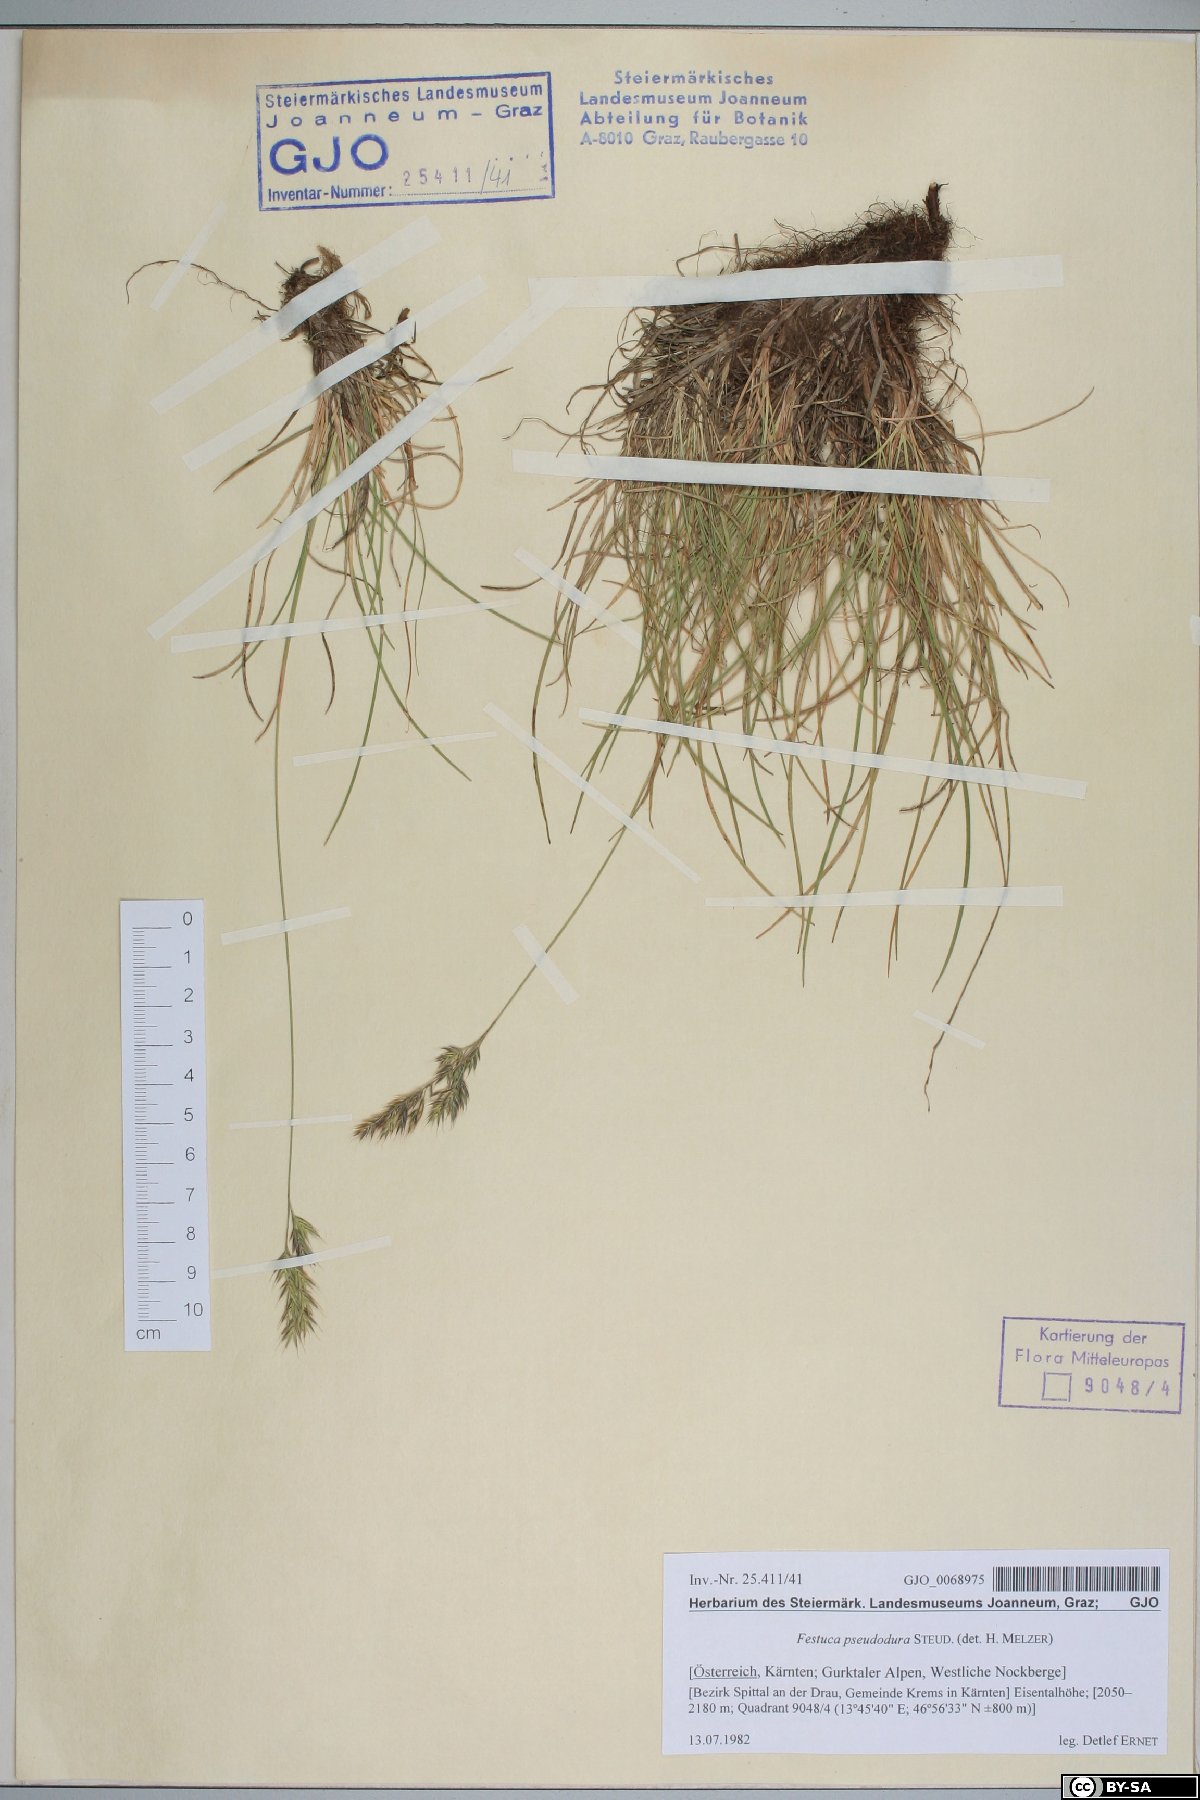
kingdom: Plantae
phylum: Tracheophyta
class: Liliopsida
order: Poales
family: Poaceae
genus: Festuca
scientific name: Festuca pseudodura
